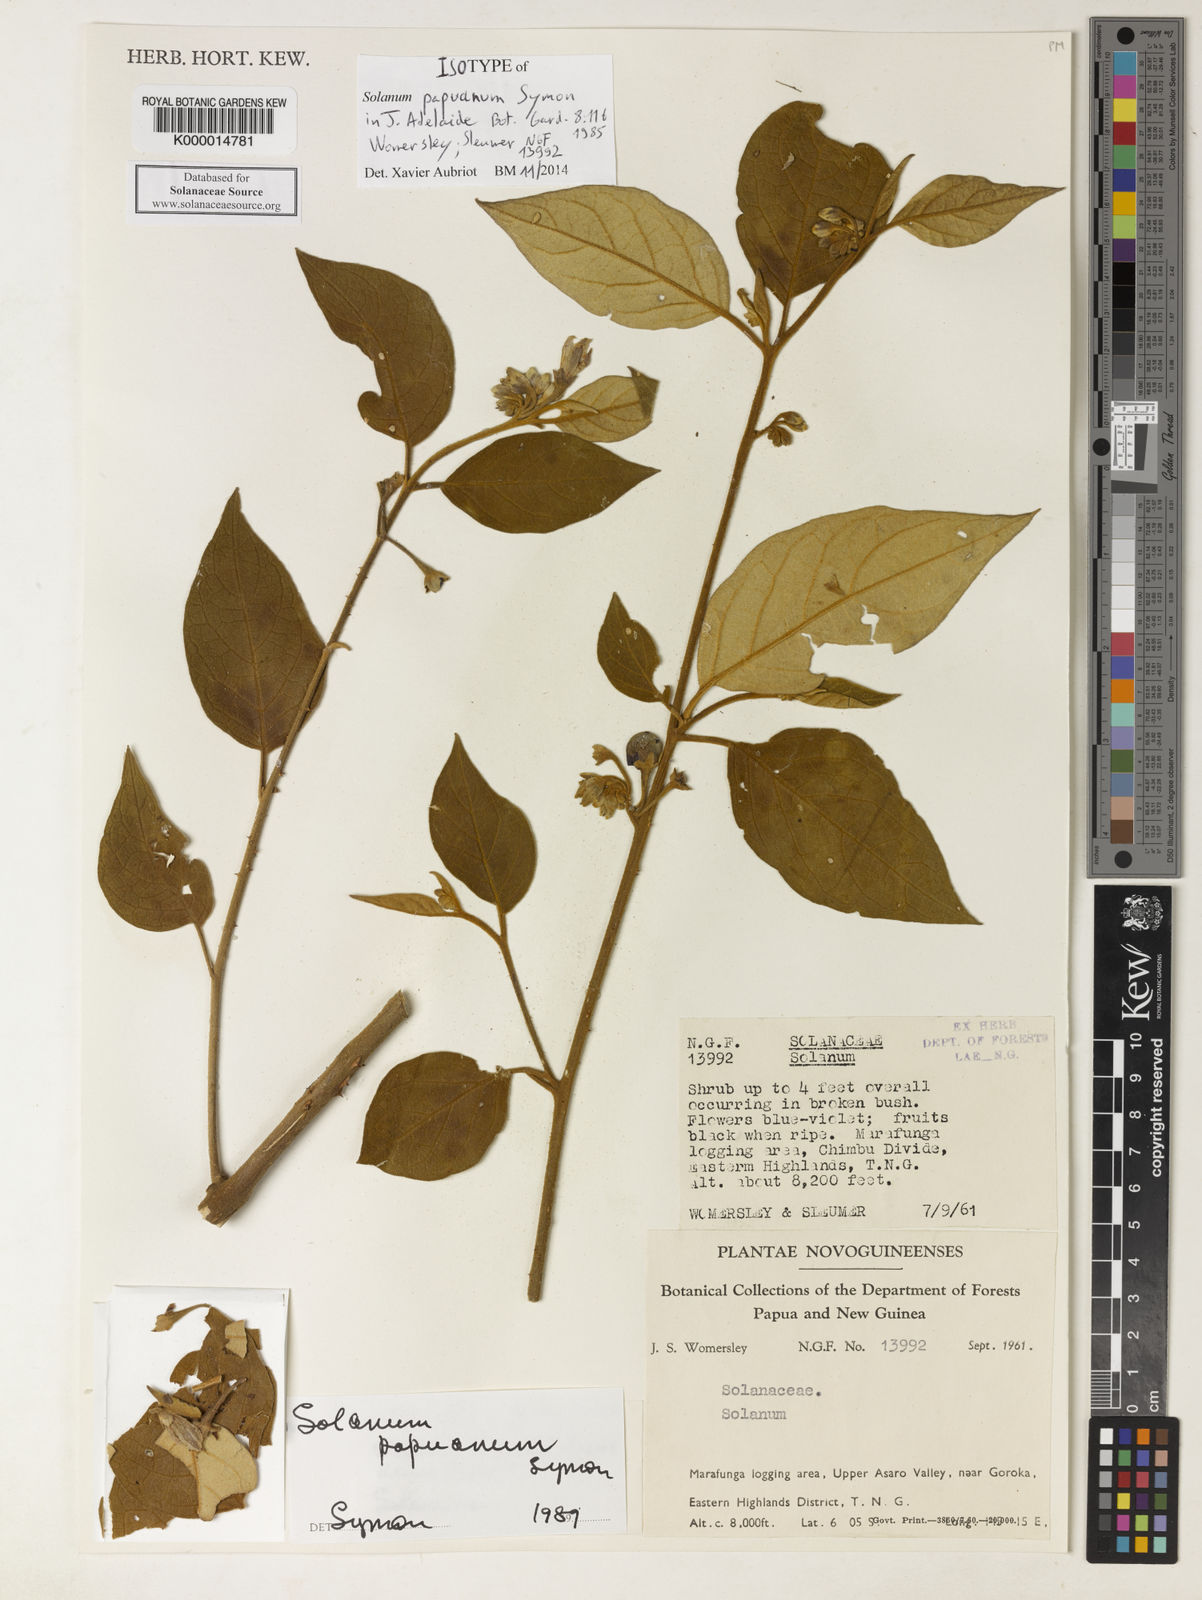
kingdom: Plantae
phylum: Tracheophyta
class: Magnoliopsida
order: Solanales
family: Solanaceae
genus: Solanum
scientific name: Solanum papuanum
